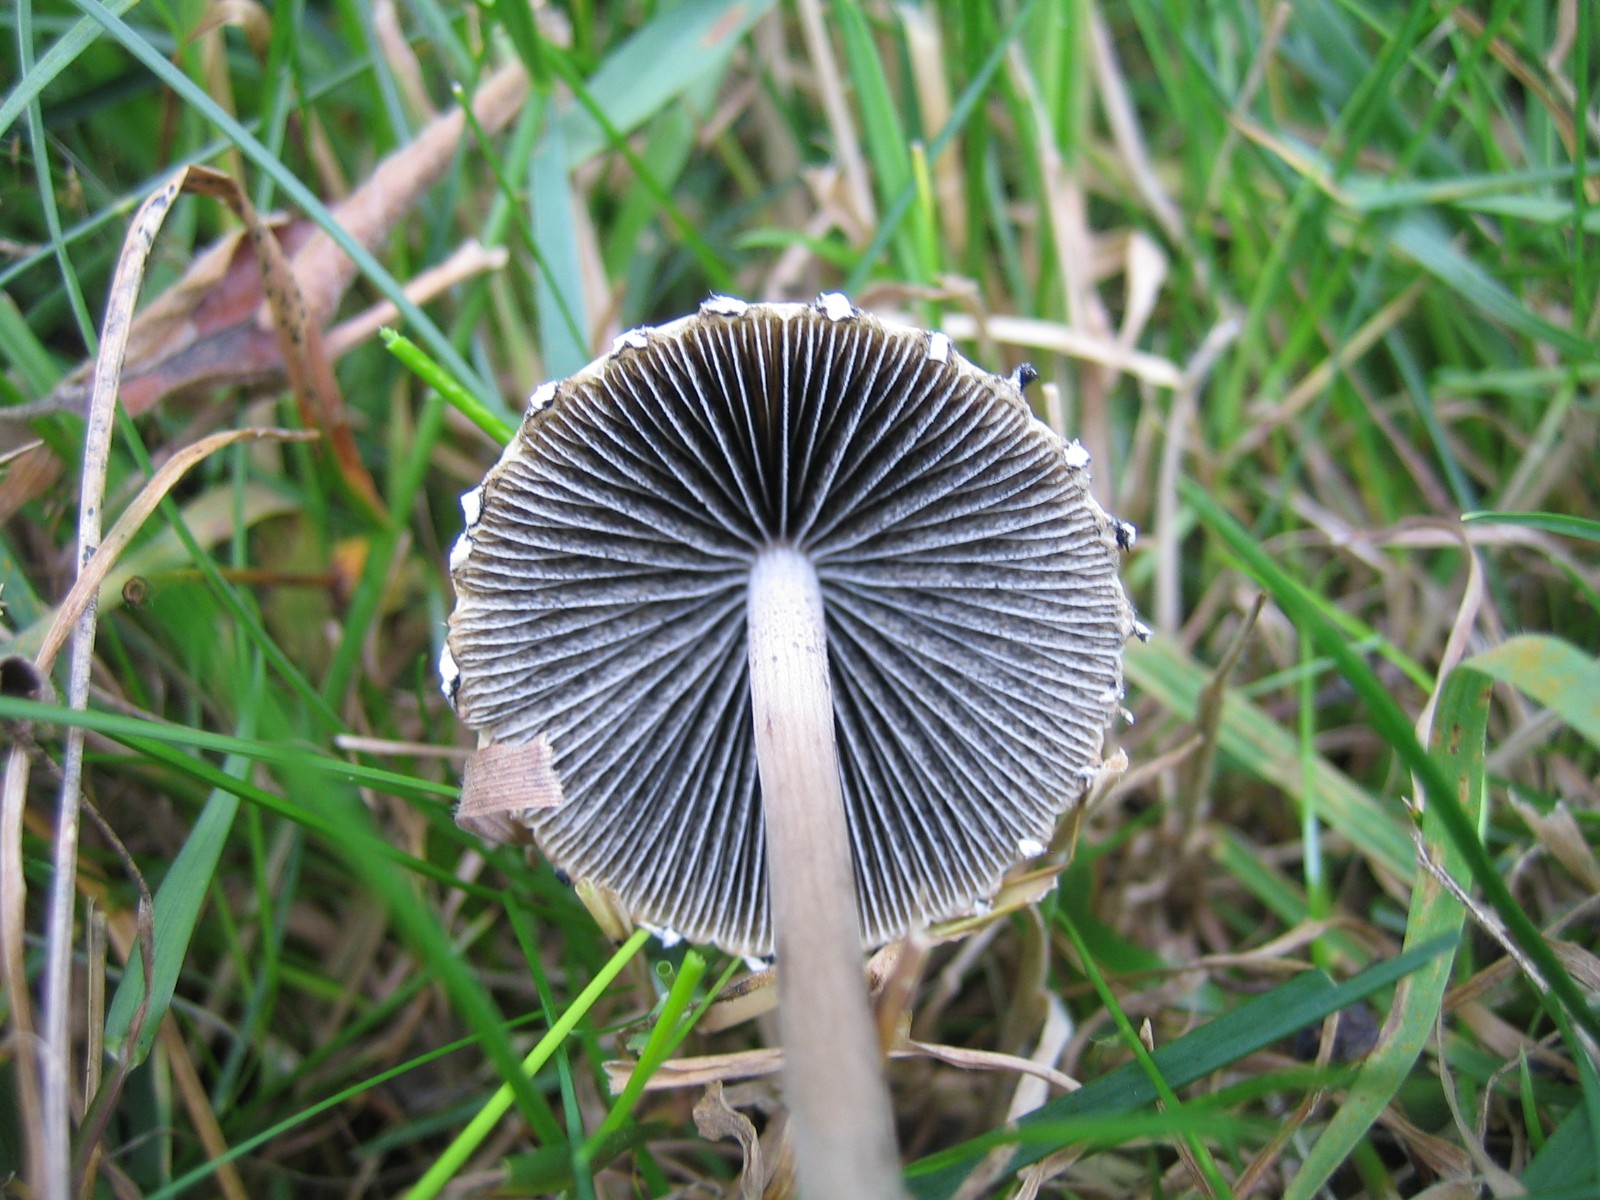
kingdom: Fungi
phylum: Basidiomycota
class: Agaricomycetes
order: Agaricales
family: Bolbitiaceae
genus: Panaeolus
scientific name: Panaeolus papilionaceus
